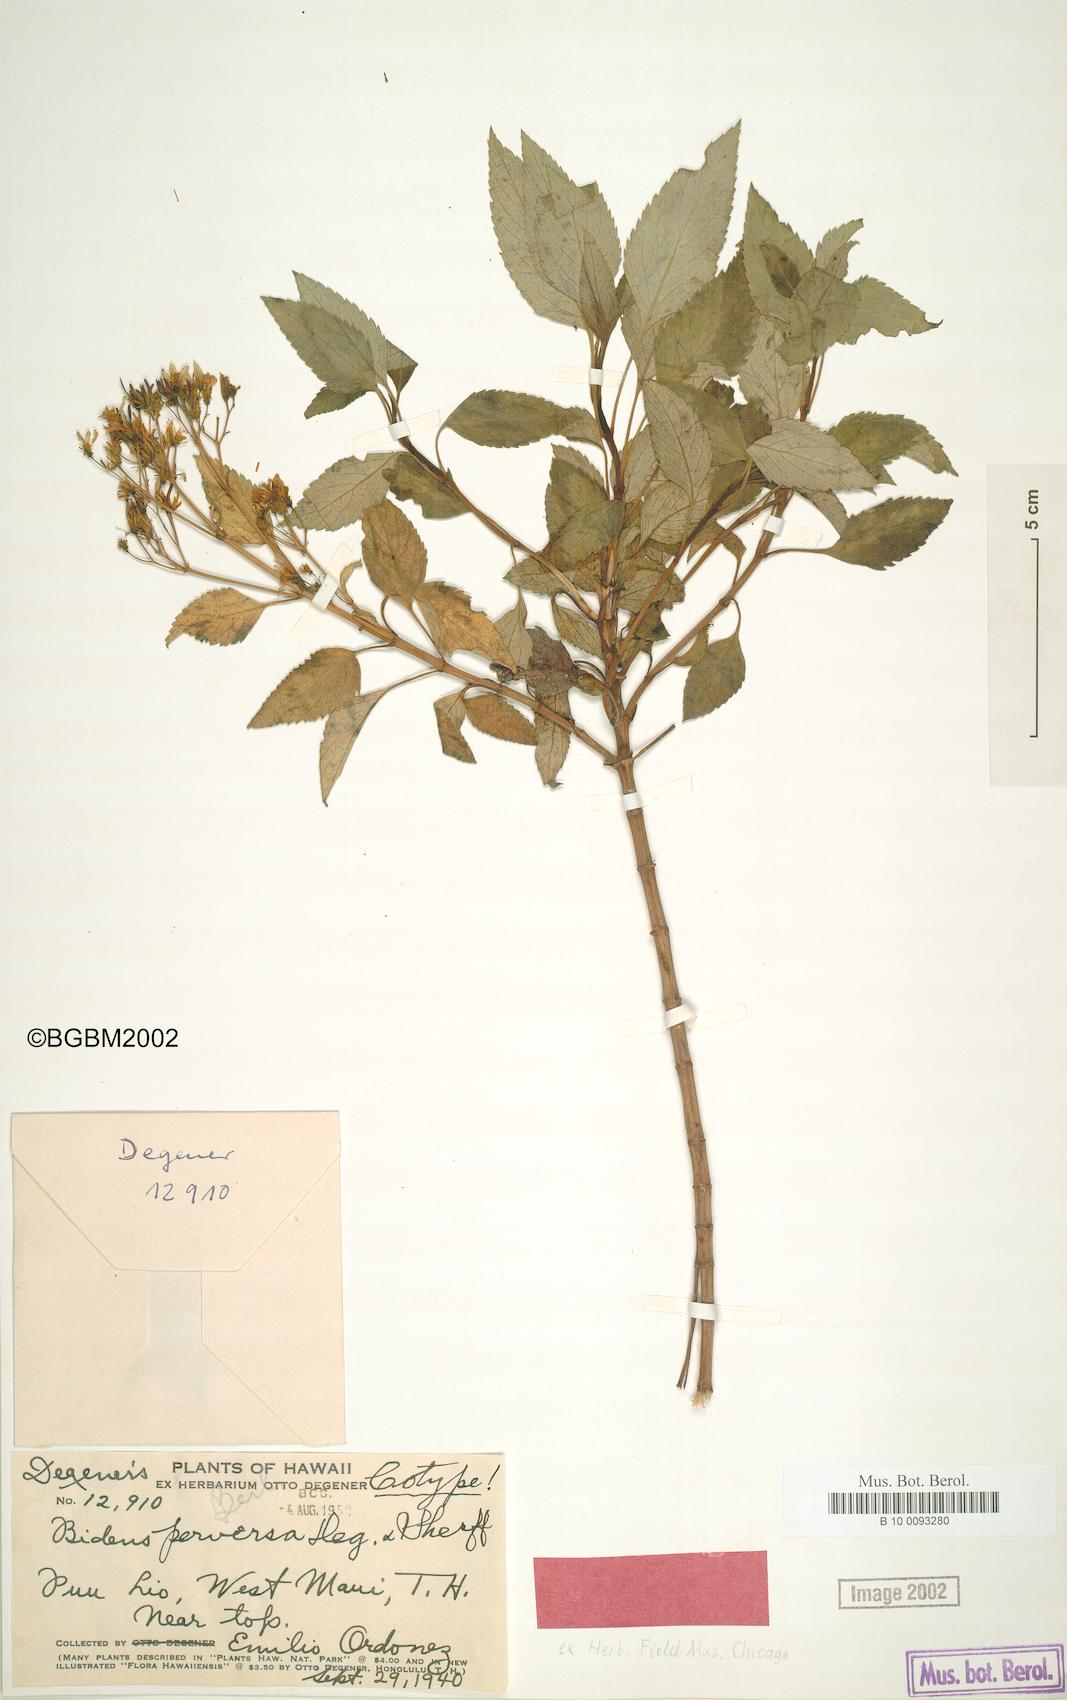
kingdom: Plantae
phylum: Tracheophyta
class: Magnoliopsida
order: Asterales
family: Asteraceae
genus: Bidens
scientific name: Bidens micrantha
